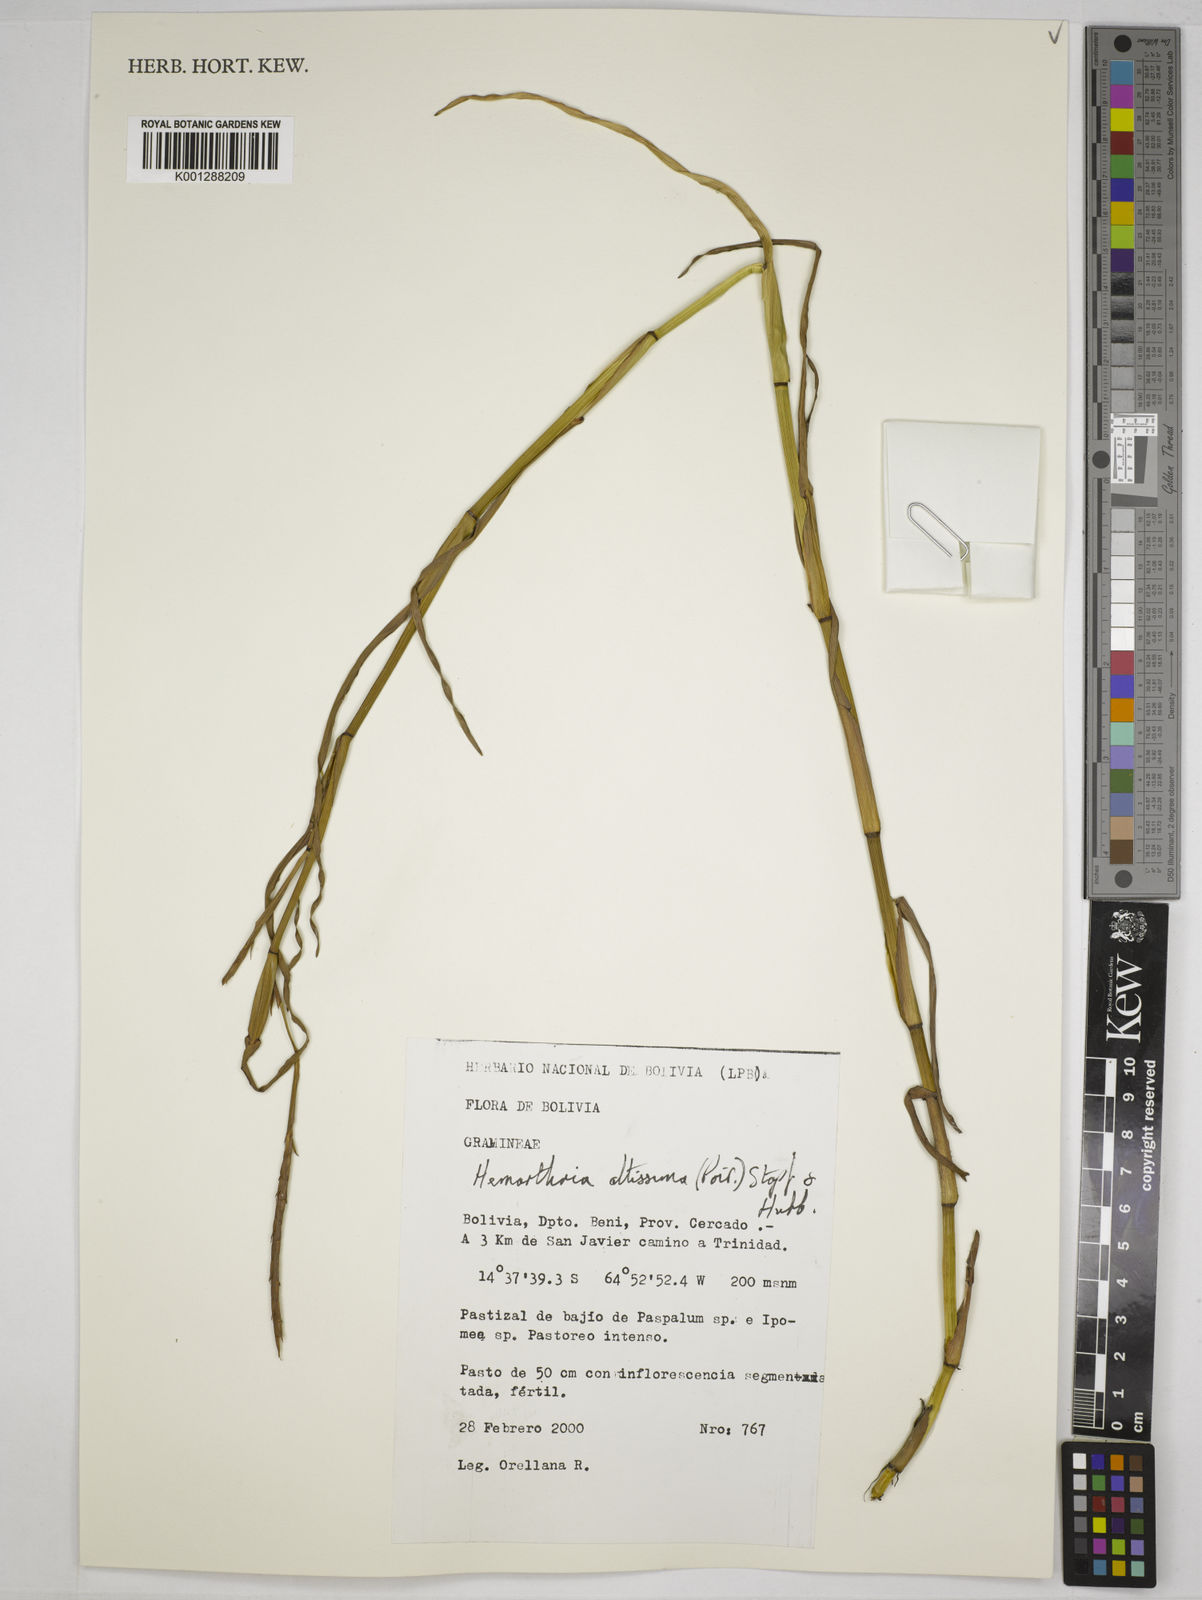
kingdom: Plantae
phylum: Tracheophyta
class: Liliopsida
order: Poales
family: Poaceae
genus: Hemarthria
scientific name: Hemarthria altissima
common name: African jointgrass
